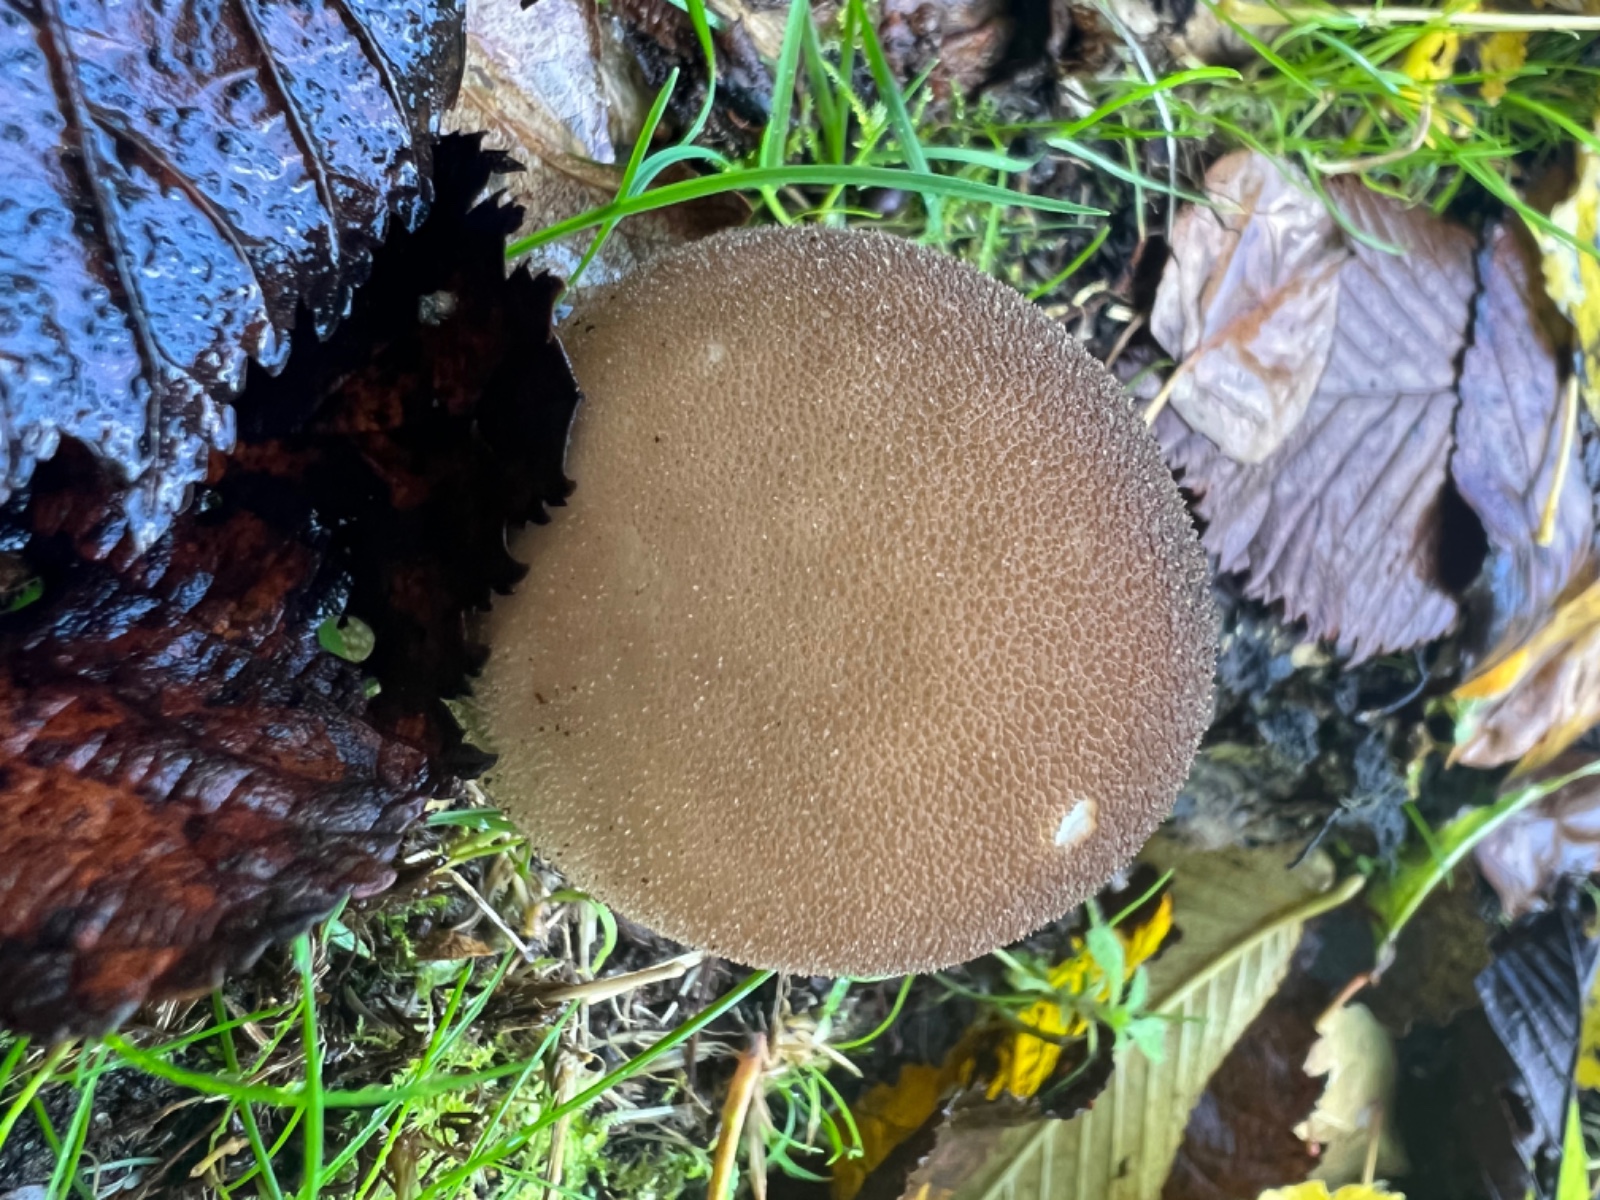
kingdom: Fungi
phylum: Basidiomycota
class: Agaricomycetes
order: Agaricales
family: Agaricaceae
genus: Lycoperdon
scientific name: Lycoperdon
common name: støvbold
